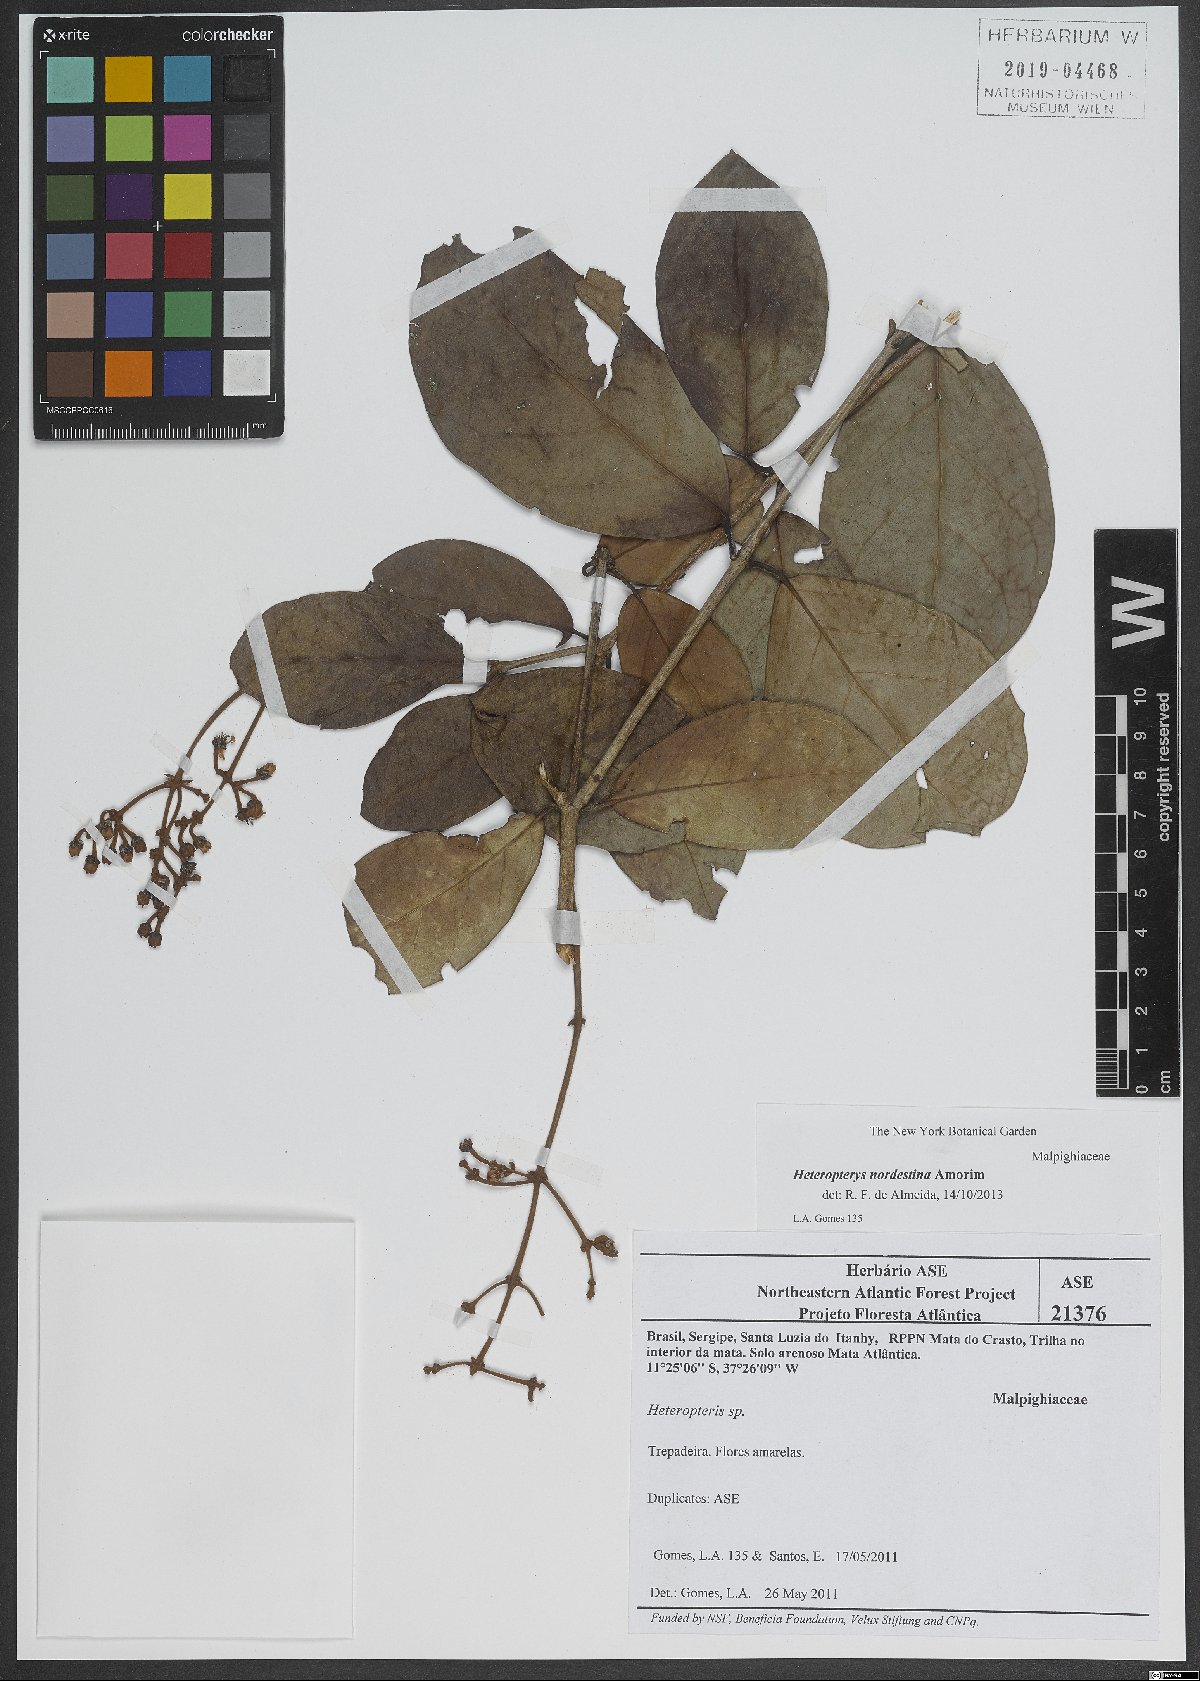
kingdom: Plantae
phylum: Tracheophyta
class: Magnoliopsida
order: Malpighiales
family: Malpighiaceae
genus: Heteropterys
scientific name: Heteropterys nordestina
